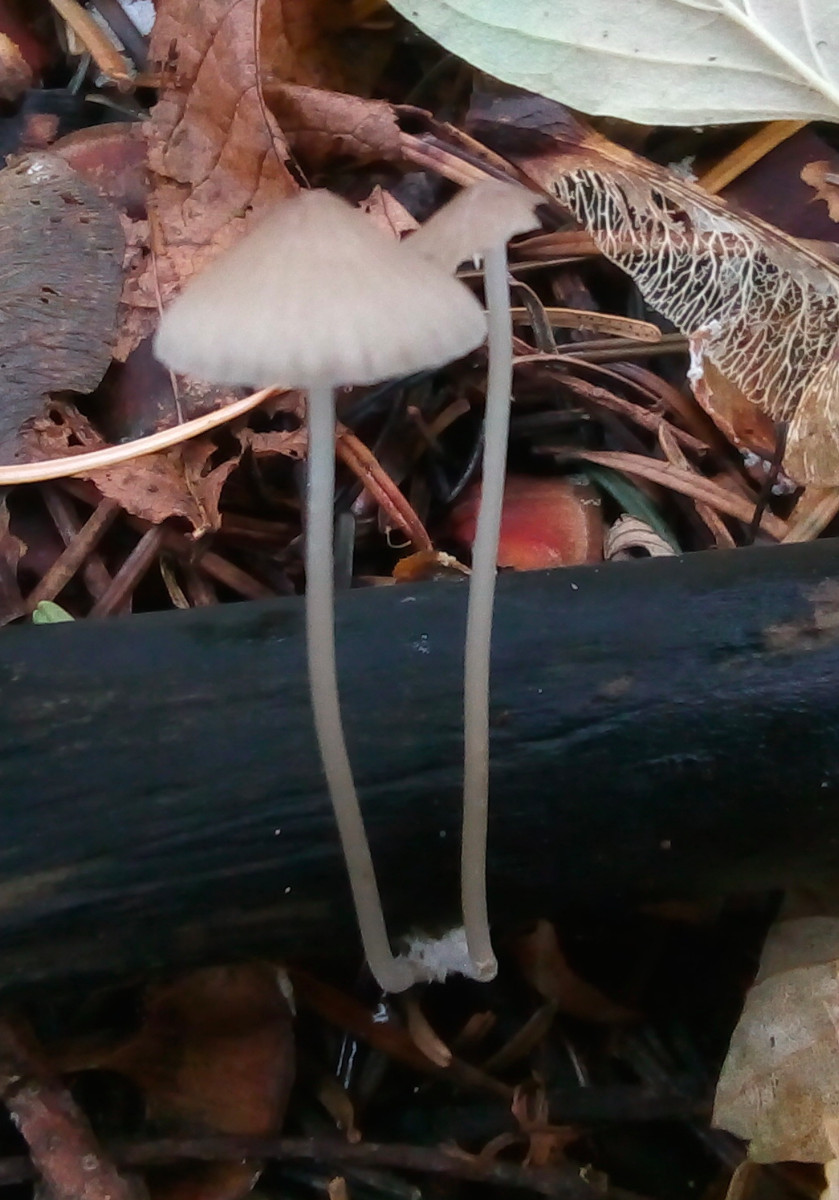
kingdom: Fungi
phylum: Basidiomycota
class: Agaricomycetes
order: Agaricales
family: Mycenaceae
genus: Mycena
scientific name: Mycena vitilis
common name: blankstokket huesvamp
